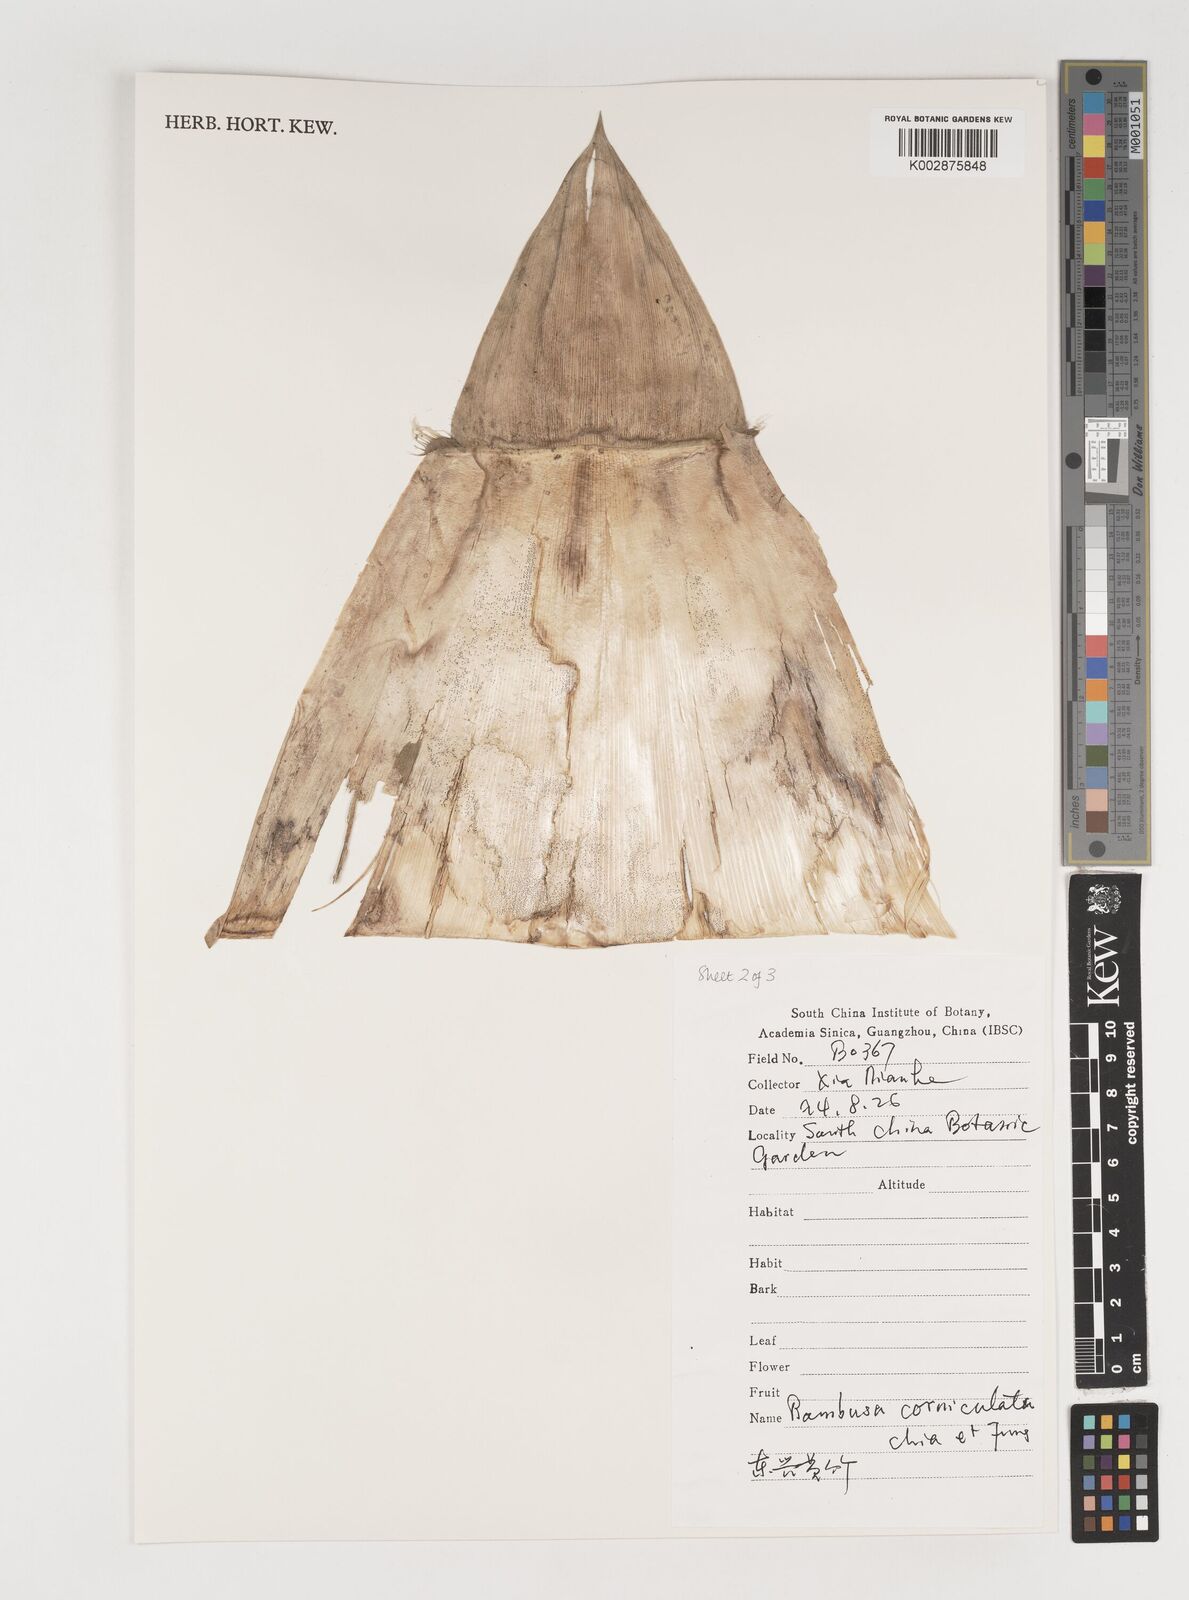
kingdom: Plantae
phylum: Tracheophyta
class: Liliopsida
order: Poales
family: Poaceae
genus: Bambusa
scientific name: Bambusa corniculata
